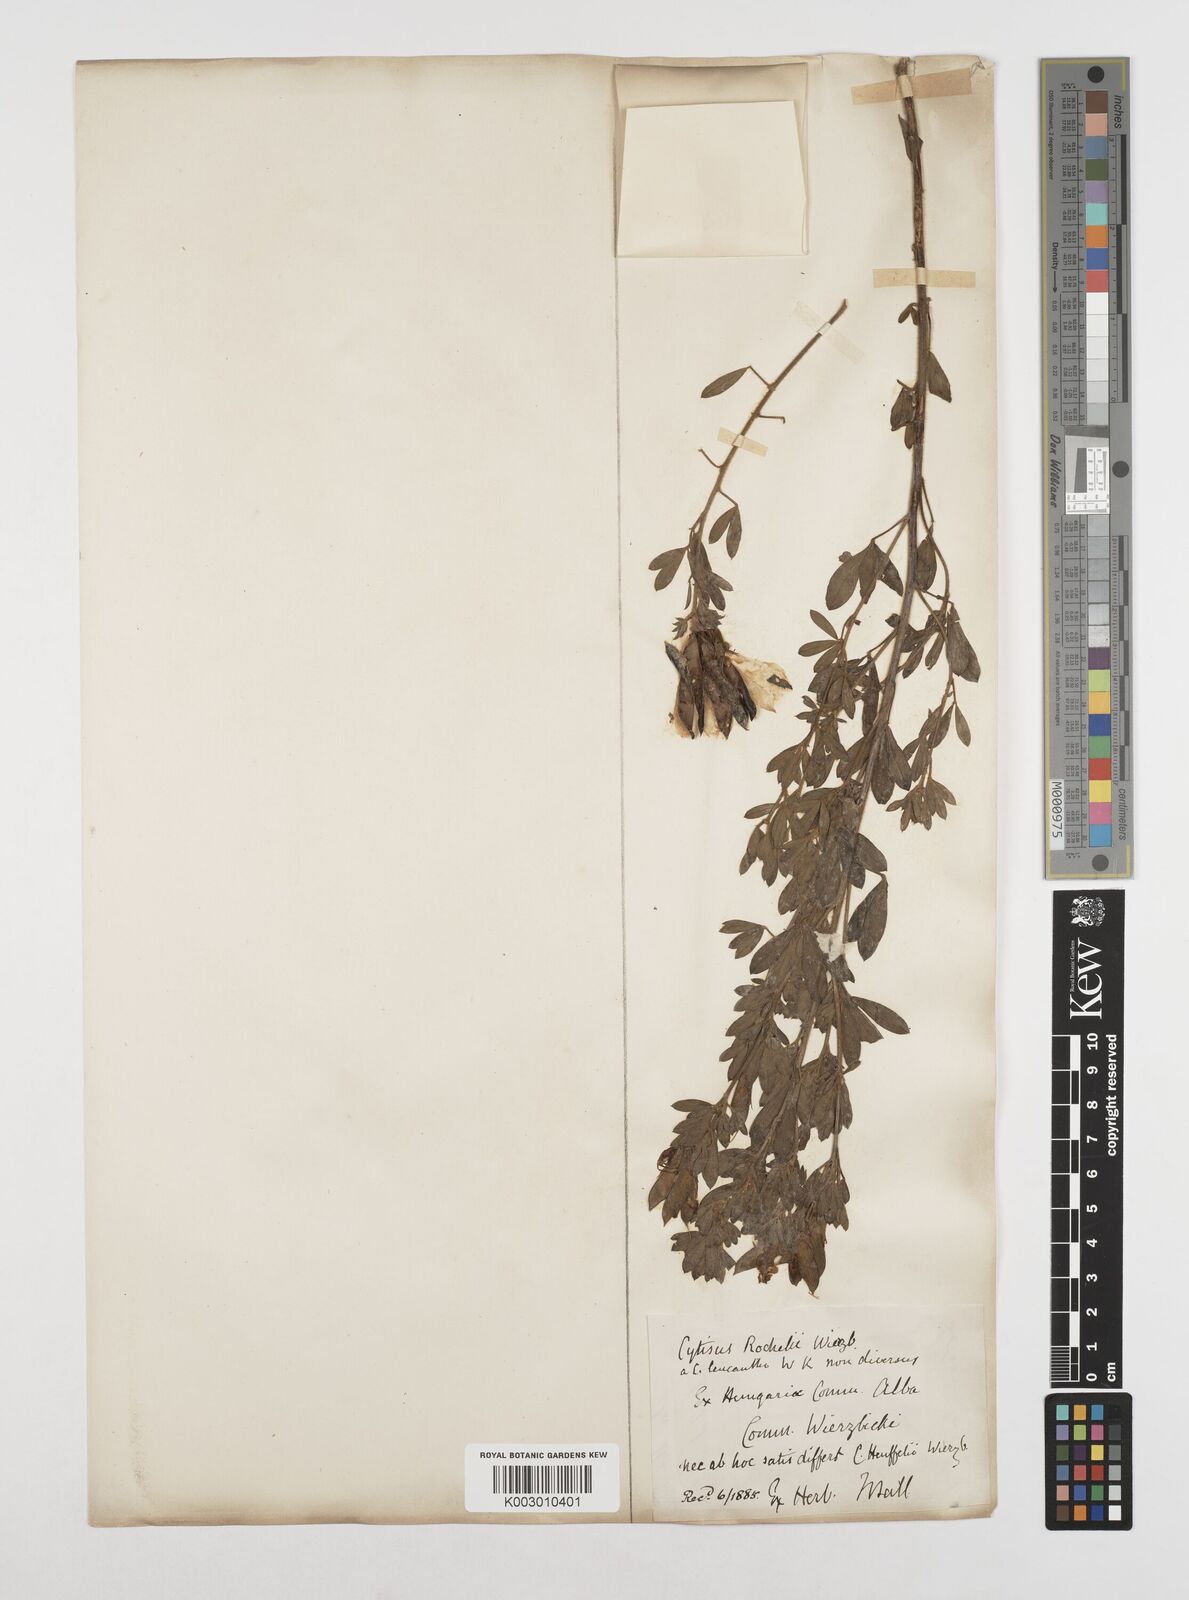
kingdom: Plantae
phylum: Tracheophyta
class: Magnoliopsida
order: Fabales
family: Fabaceae
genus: Chamaecytisus
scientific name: Chamaecytisus rochelii
